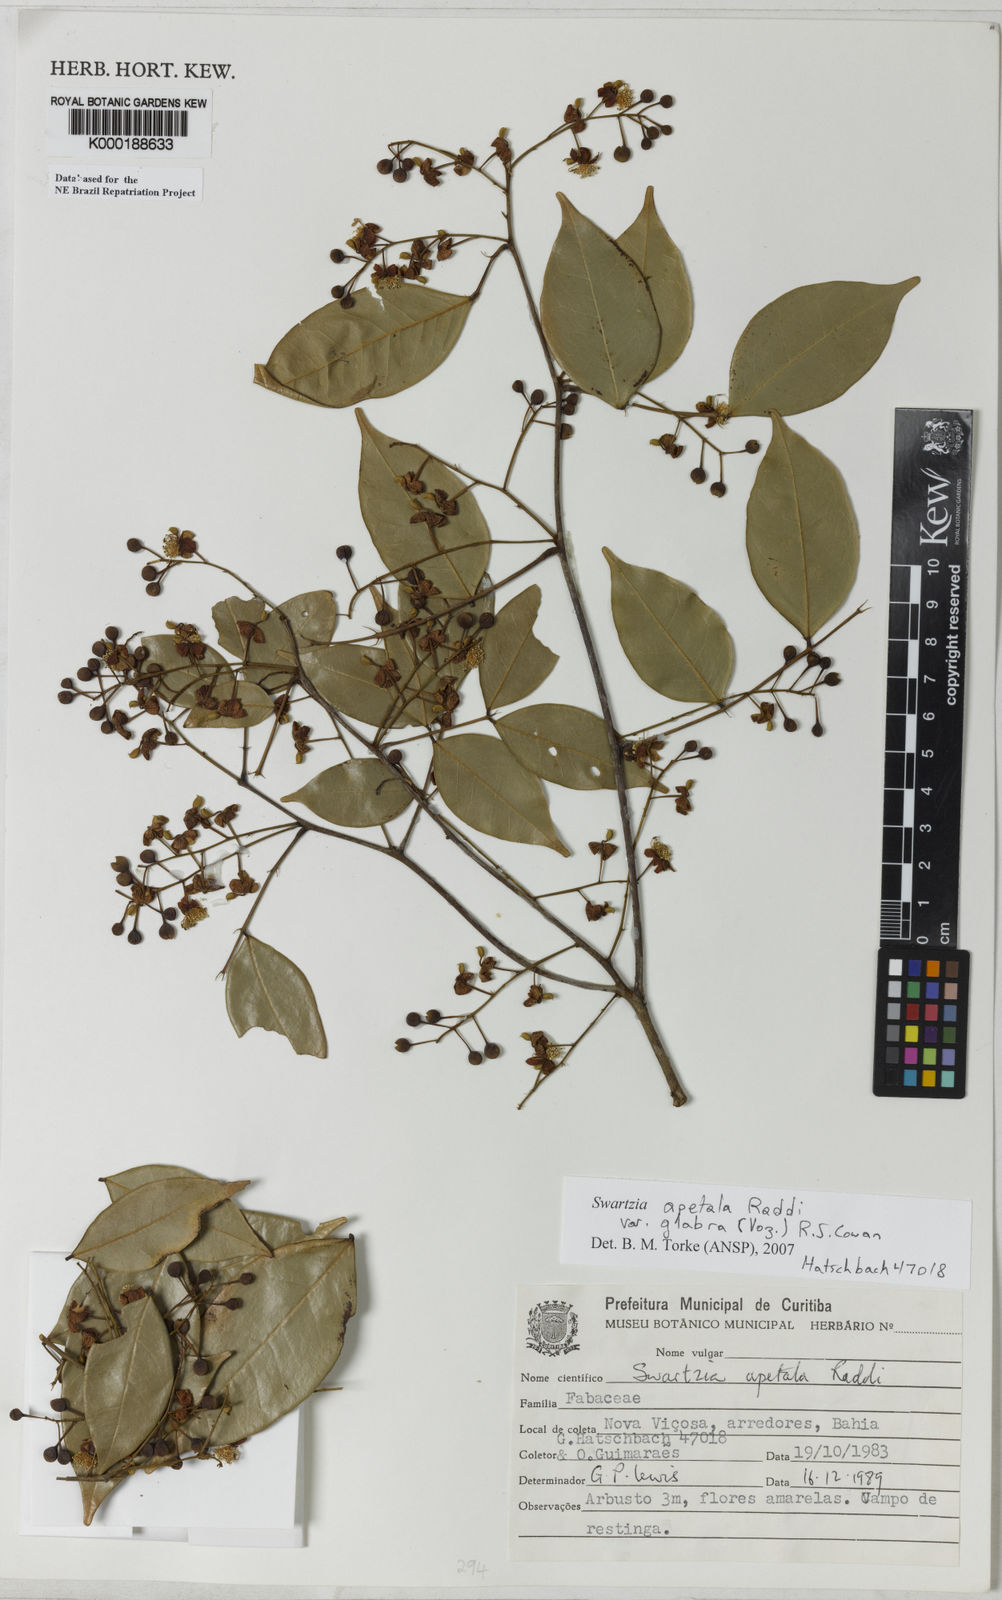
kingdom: Plantae
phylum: Tracheophyta
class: Magnoliopsida
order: Fabales
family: Fabaceae
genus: Swartzia
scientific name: Swartzia apetala
